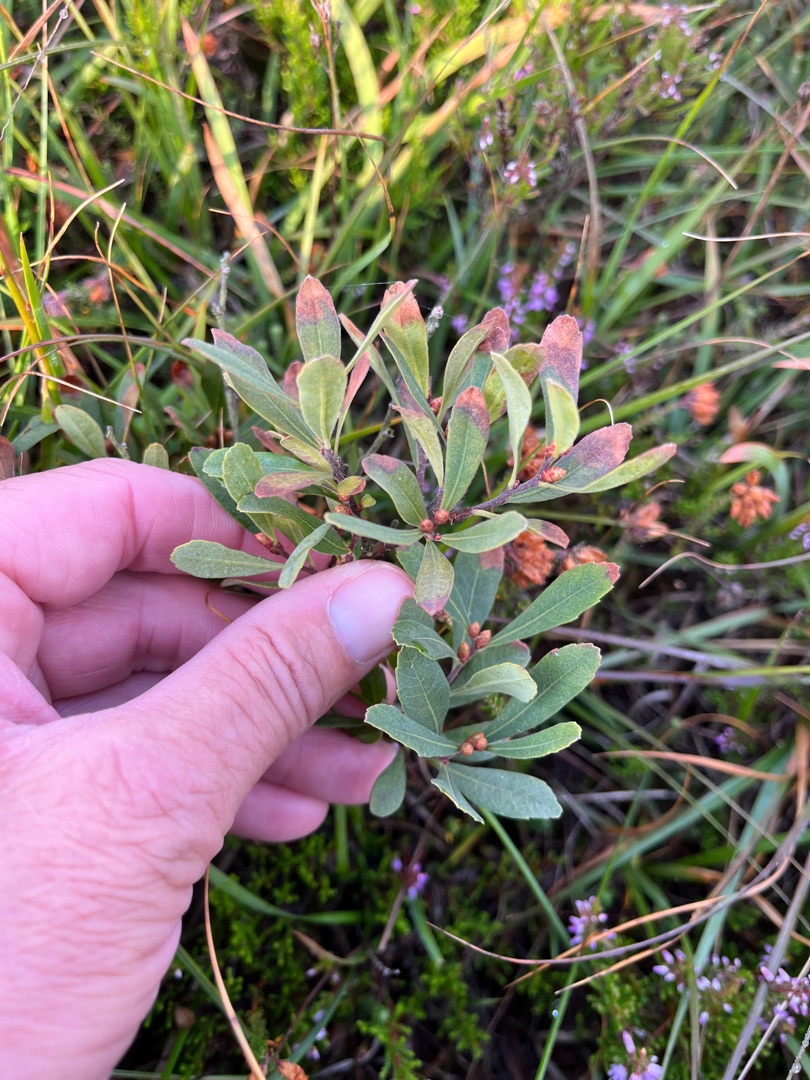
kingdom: Plantae
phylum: Tracheophyta
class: Magnoliopsida
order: Fagales
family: Myricaceae
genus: Myrica
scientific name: Myrica gale
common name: Pors
